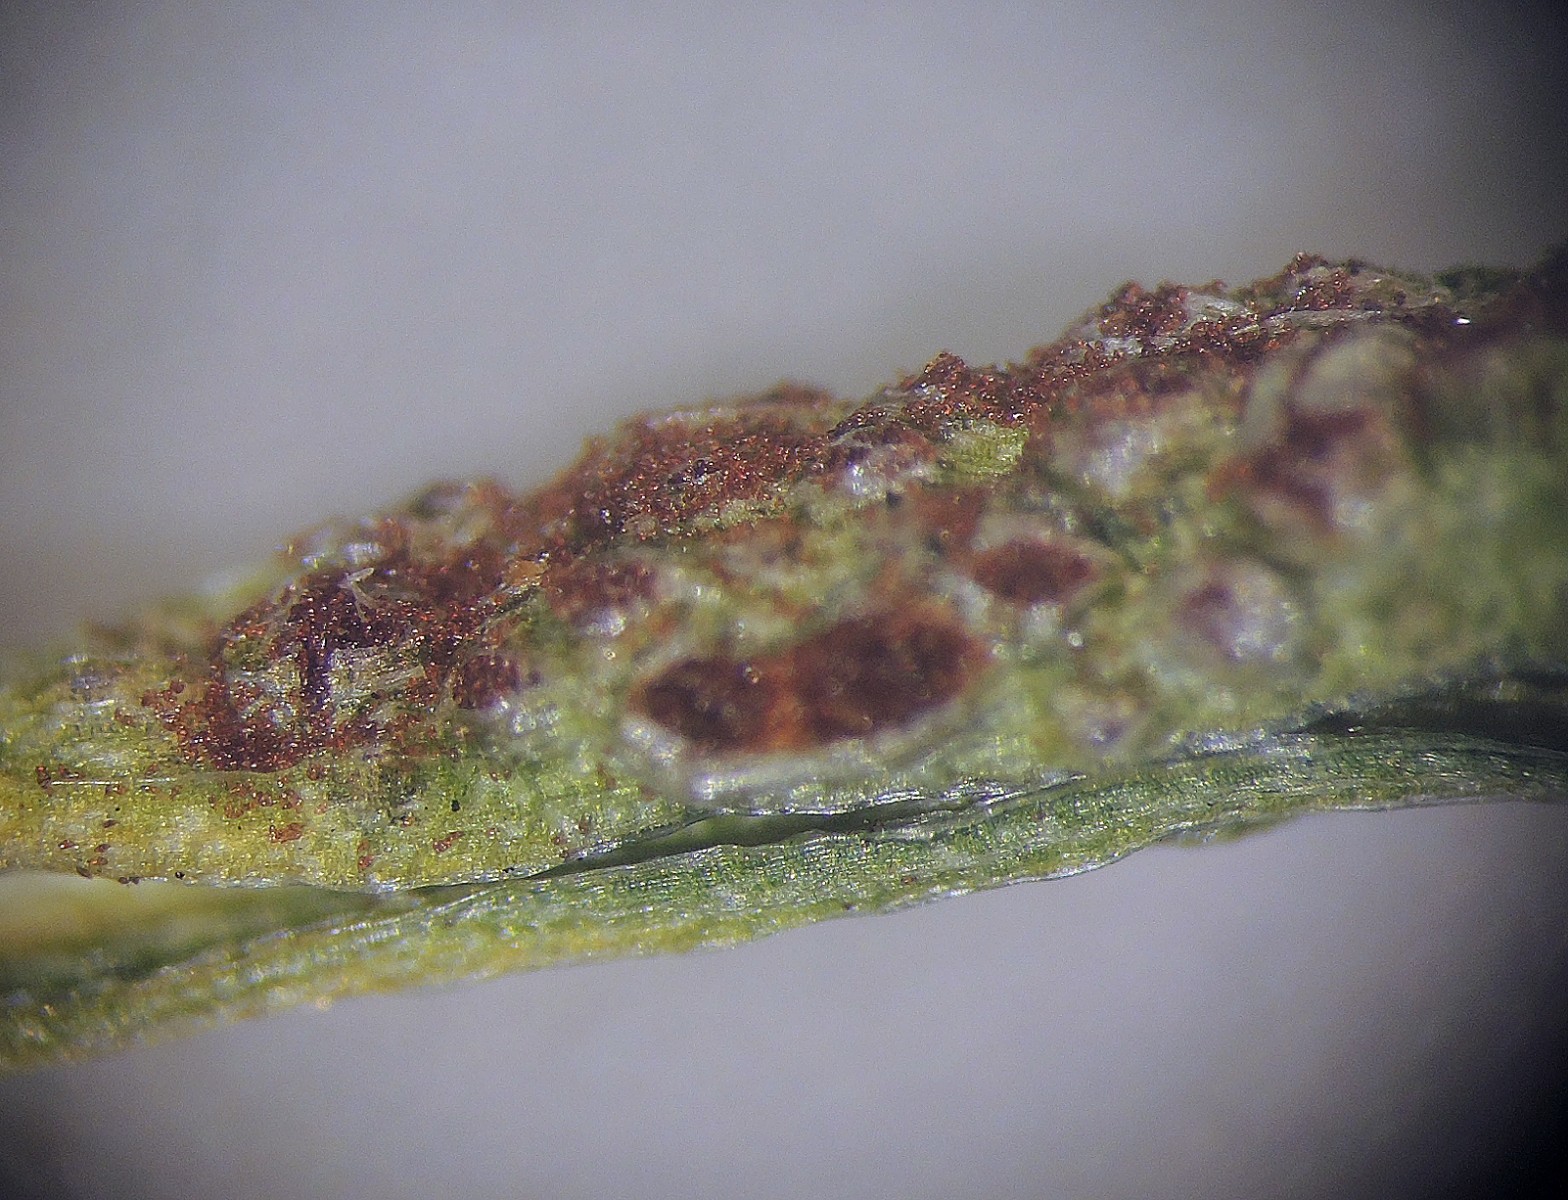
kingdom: Fungi
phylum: Basidiomycota
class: Pucciniomycetes
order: Pucciniales
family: Pucciniaceae
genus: Puccinia
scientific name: Puccinia liliacearum
